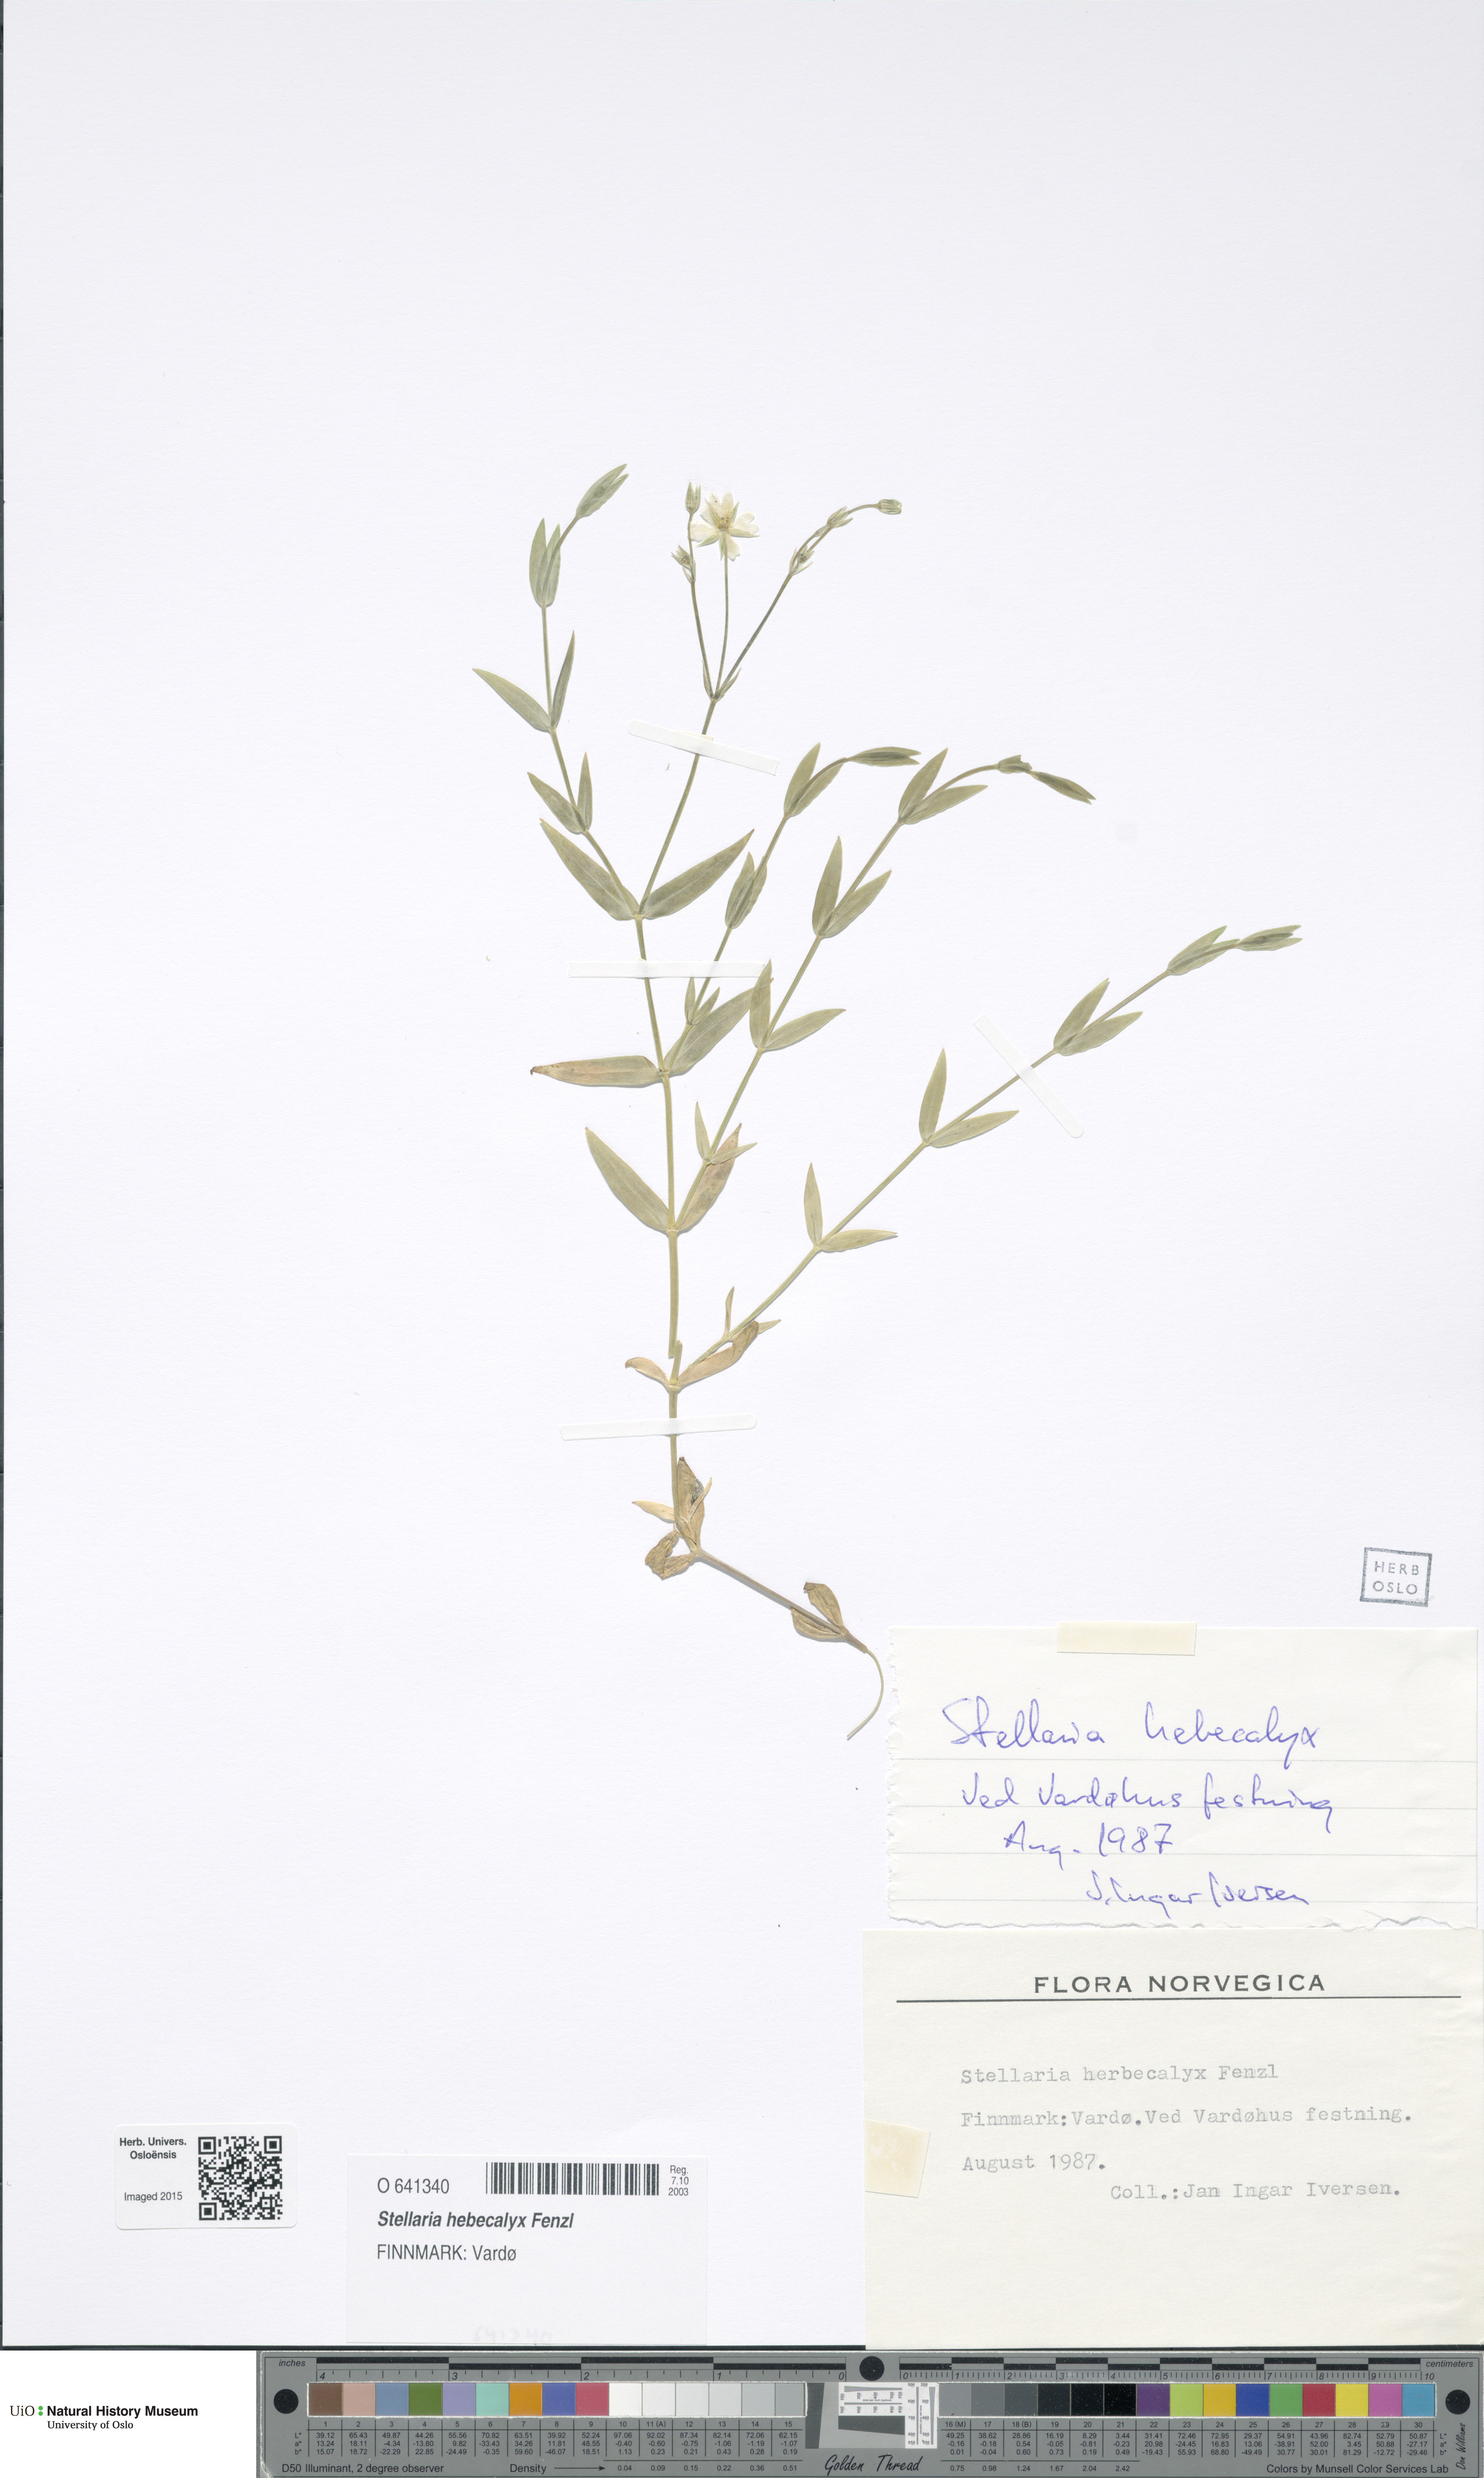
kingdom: Plantae
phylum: Tracheophyta
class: Magnoliopsida
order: Caryophyllales
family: Caryophyllaceae
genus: Stellaria
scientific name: Stellaria hebecalyx
